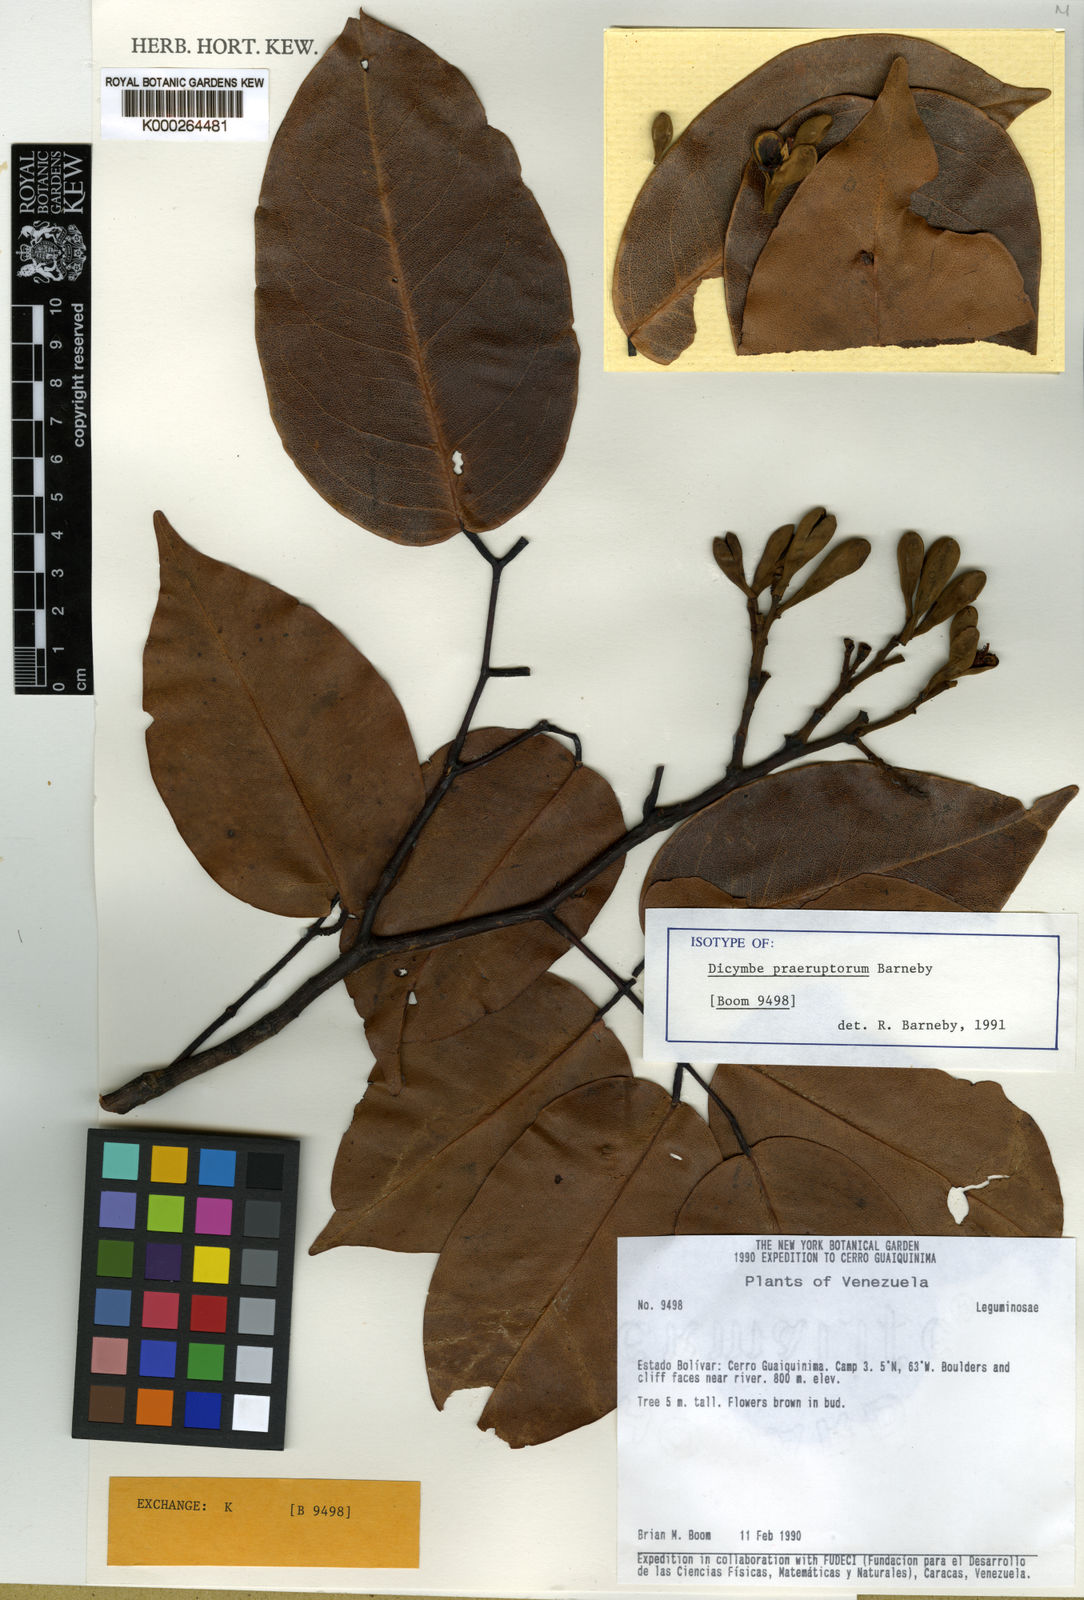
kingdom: Plantae
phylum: Tracheophyta
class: Magnoliopsida
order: Fabales
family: Fabaceae
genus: Dicymbe
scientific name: Dicymbe praeruptorum
